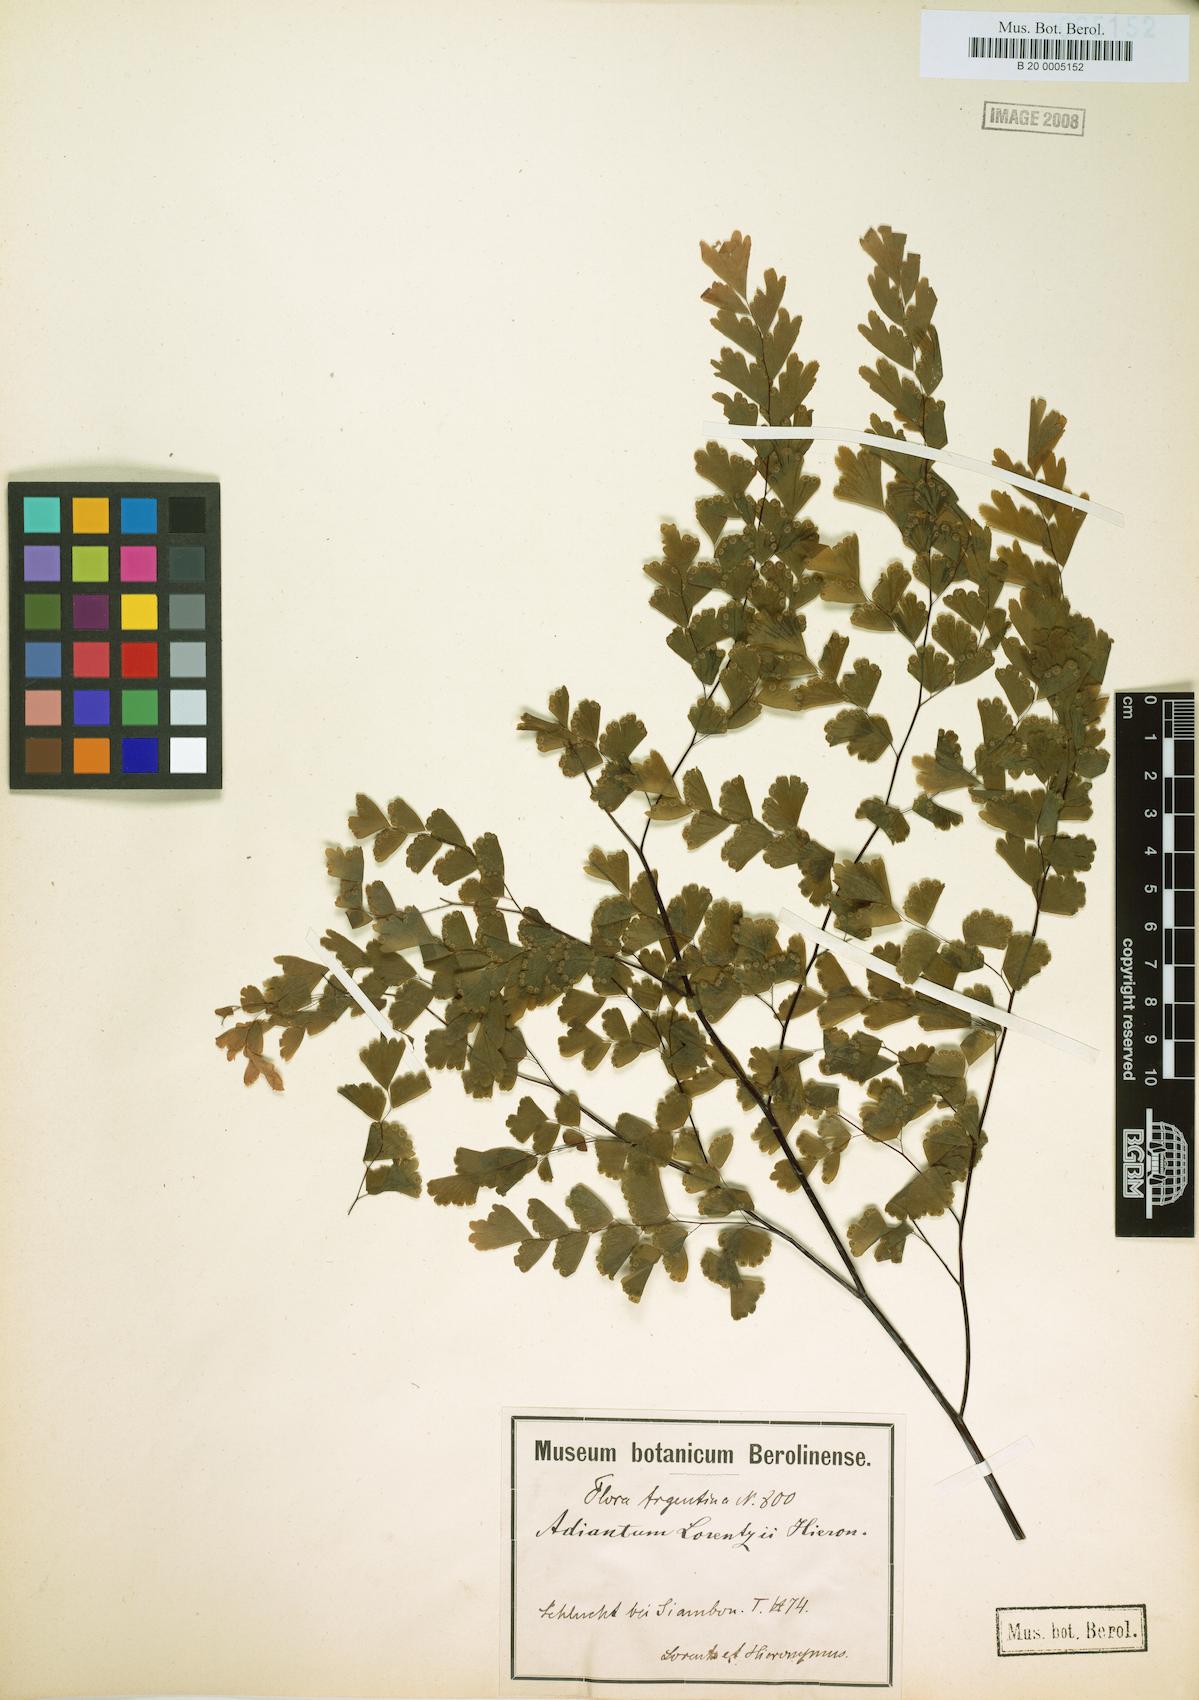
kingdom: Plantae
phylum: Tracheophyta
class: Polypodiopsida
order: Polypodiales
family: Pteridaceae
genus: Adiantum
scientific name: Adiantum lorentzii
